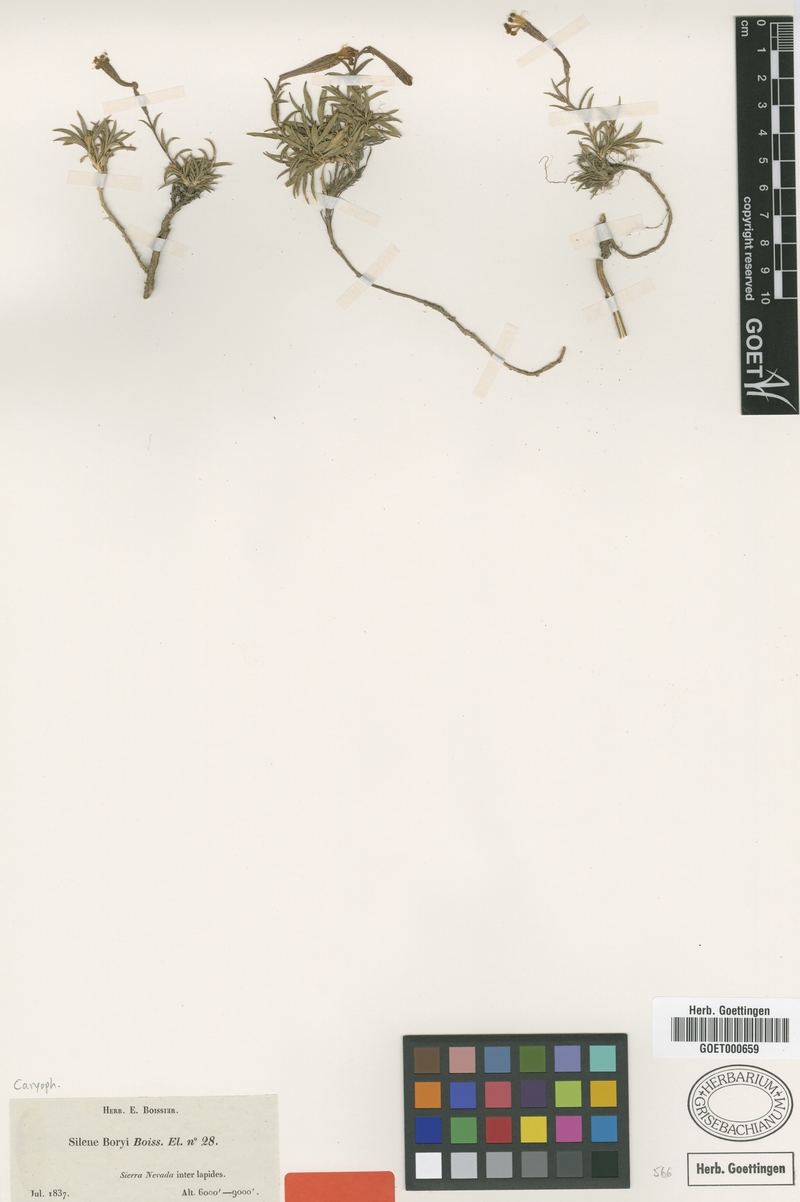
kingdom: Plantae
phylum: Tracheophyta
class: Magnoliopsida
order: Caryophyllales
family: Caryophyllaceae
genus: Silene
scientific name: Silene boryi
